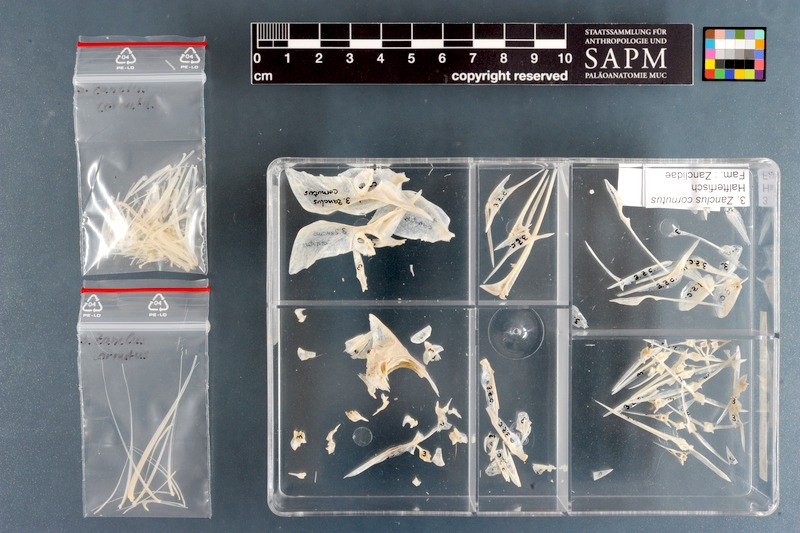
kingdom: Animalia
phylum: Chordata
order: Perciformes
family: Zanclidae
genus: Zanclus
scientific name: Zanclus cornutus
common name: Moorish idol
